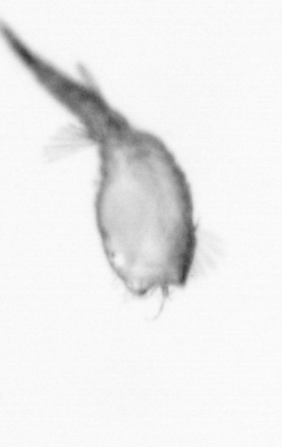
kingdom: Animalia
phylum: Annelida
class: Polychaeta
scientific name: Polychaeta
